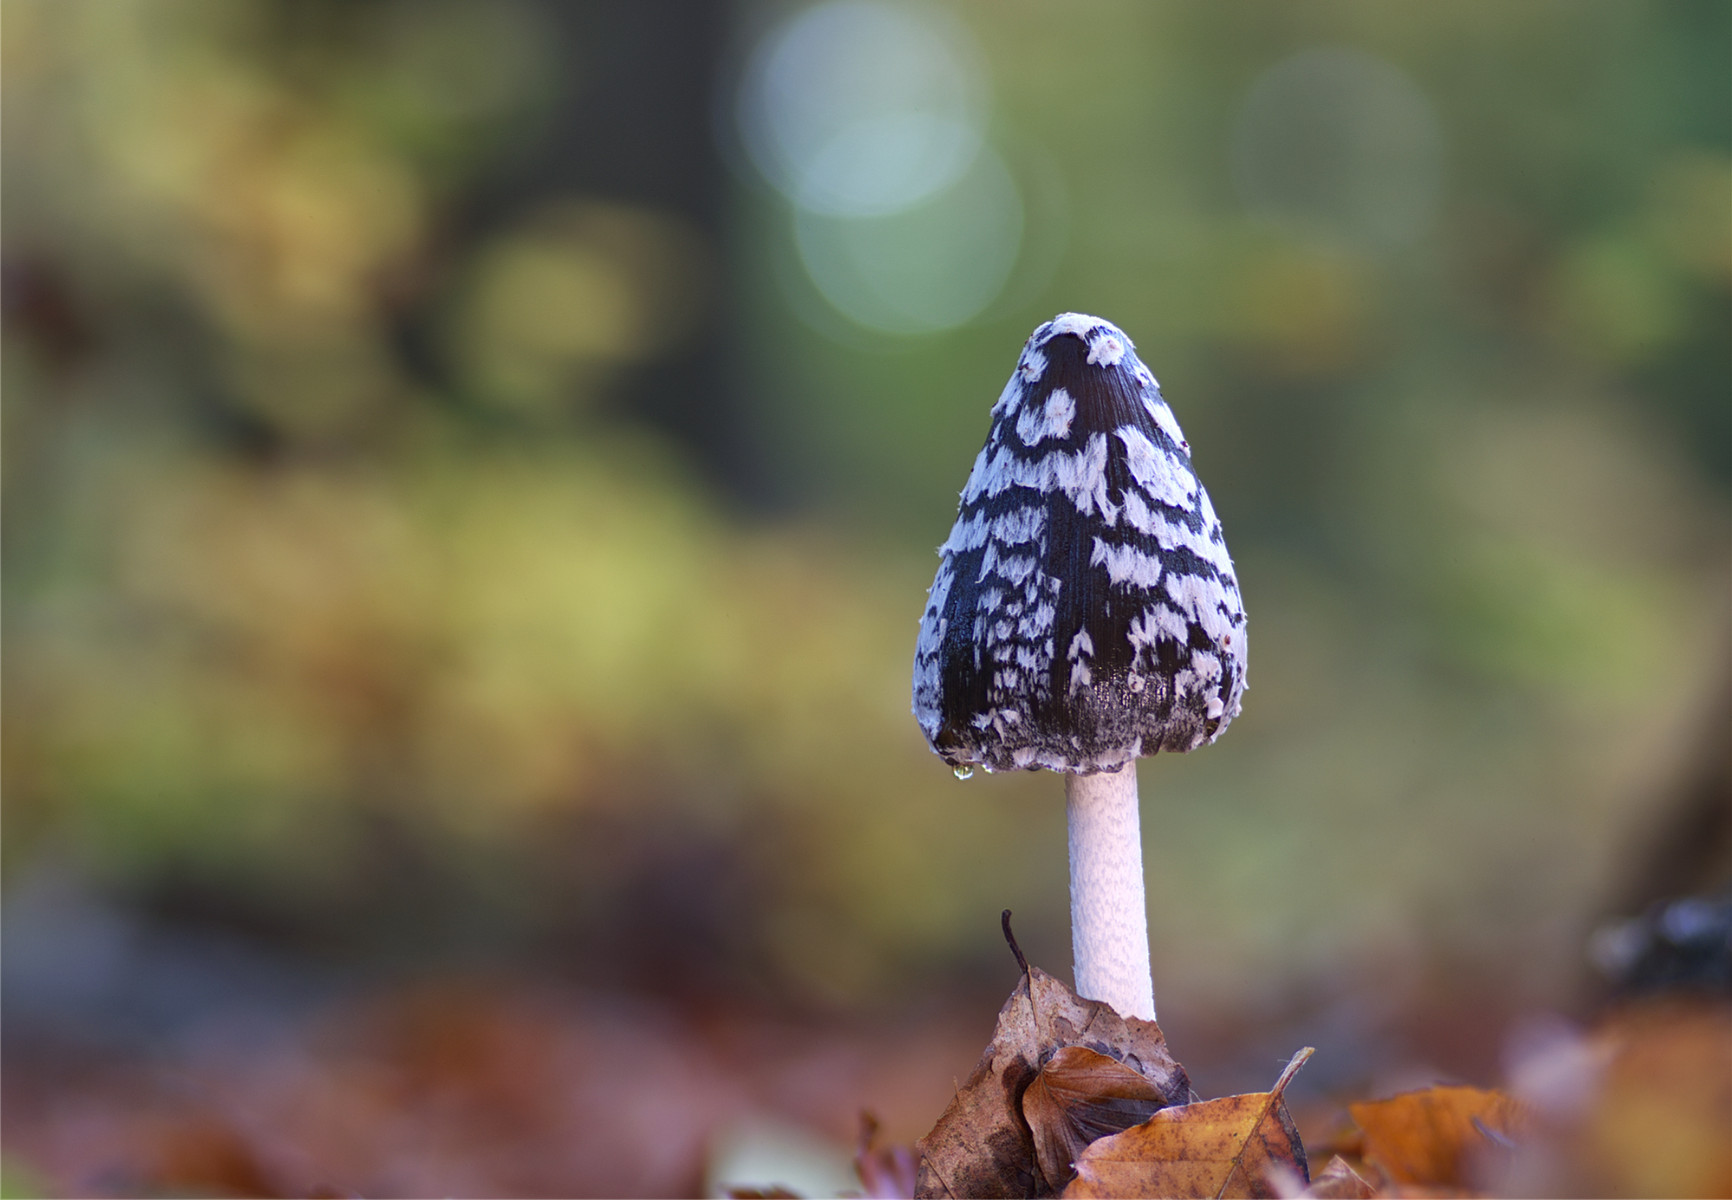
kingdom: Fungi
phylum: Basidiomycota
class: Agaricomycetes
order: Agaricales
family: Psathyrellaceae
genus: Coprinopsis
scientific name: Coprinopsis picacea
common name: skade-blækhat
